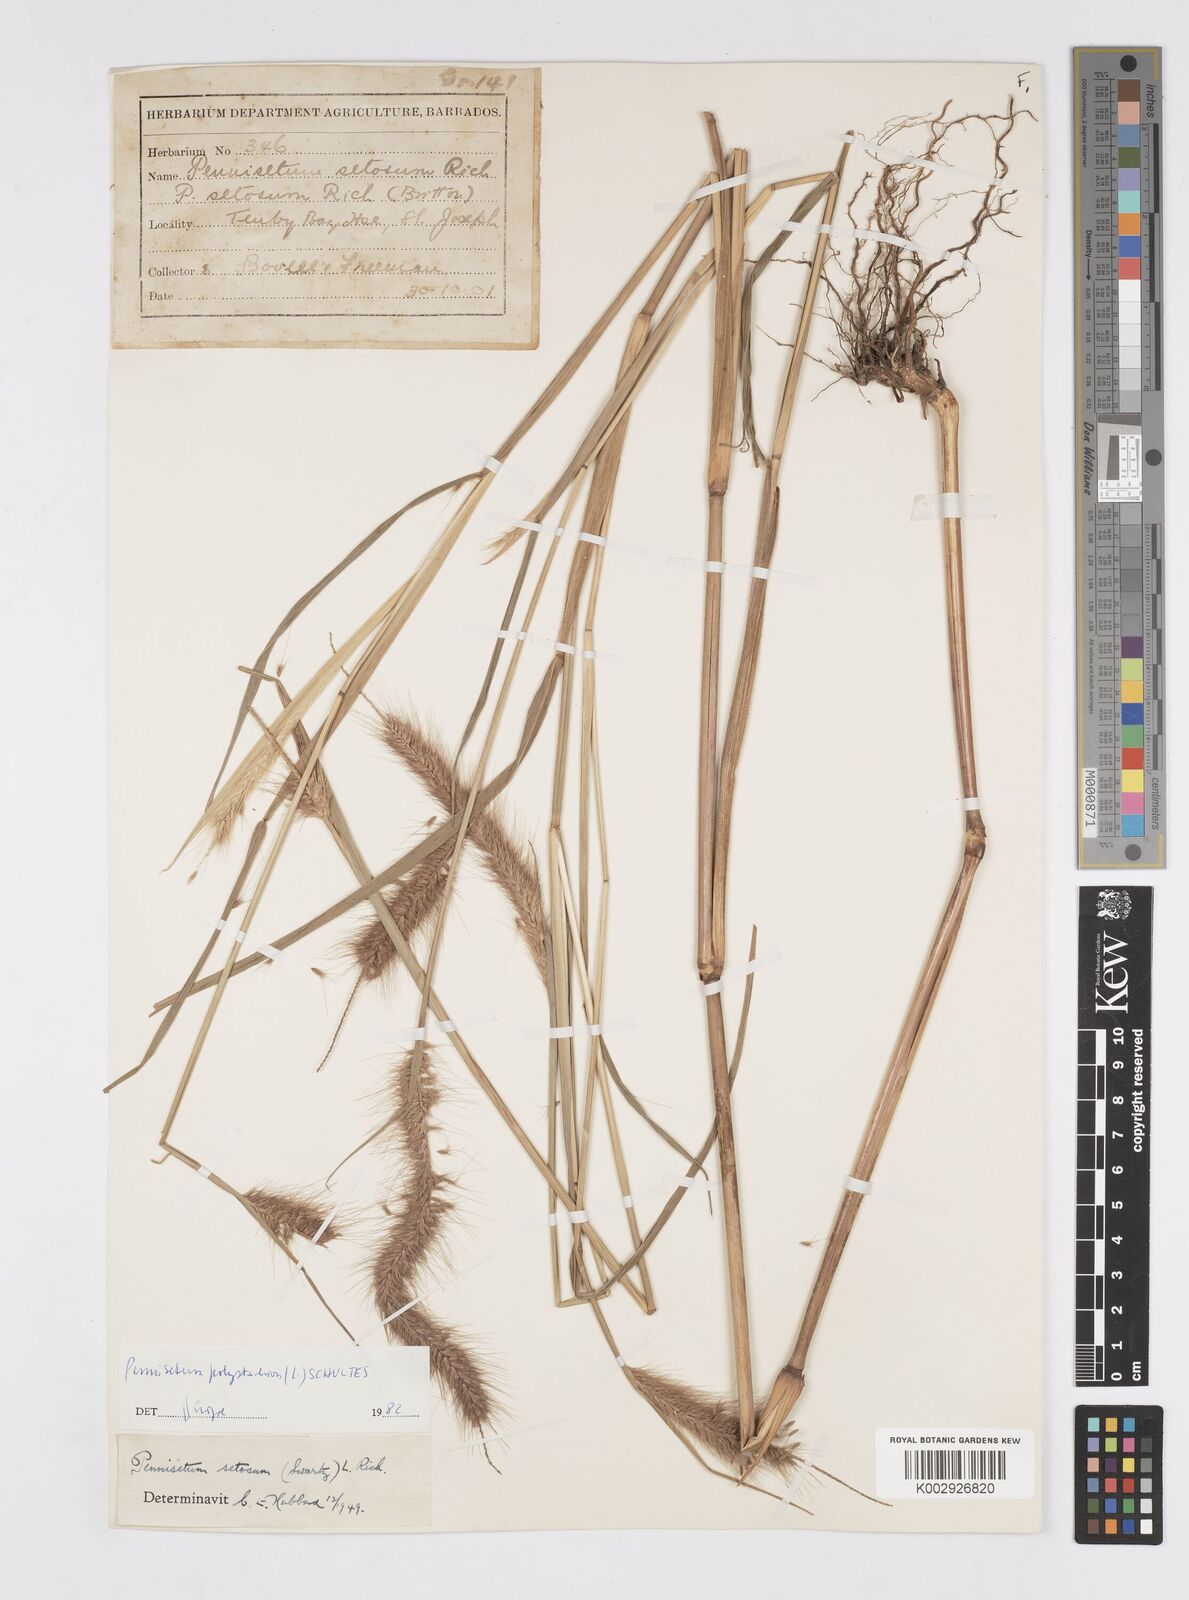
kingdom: Plantae
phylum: Tracheophyta
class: Liliopsida
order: Poales
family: Poaceae
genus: Cenchrus
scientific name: Cenchrus setosus
